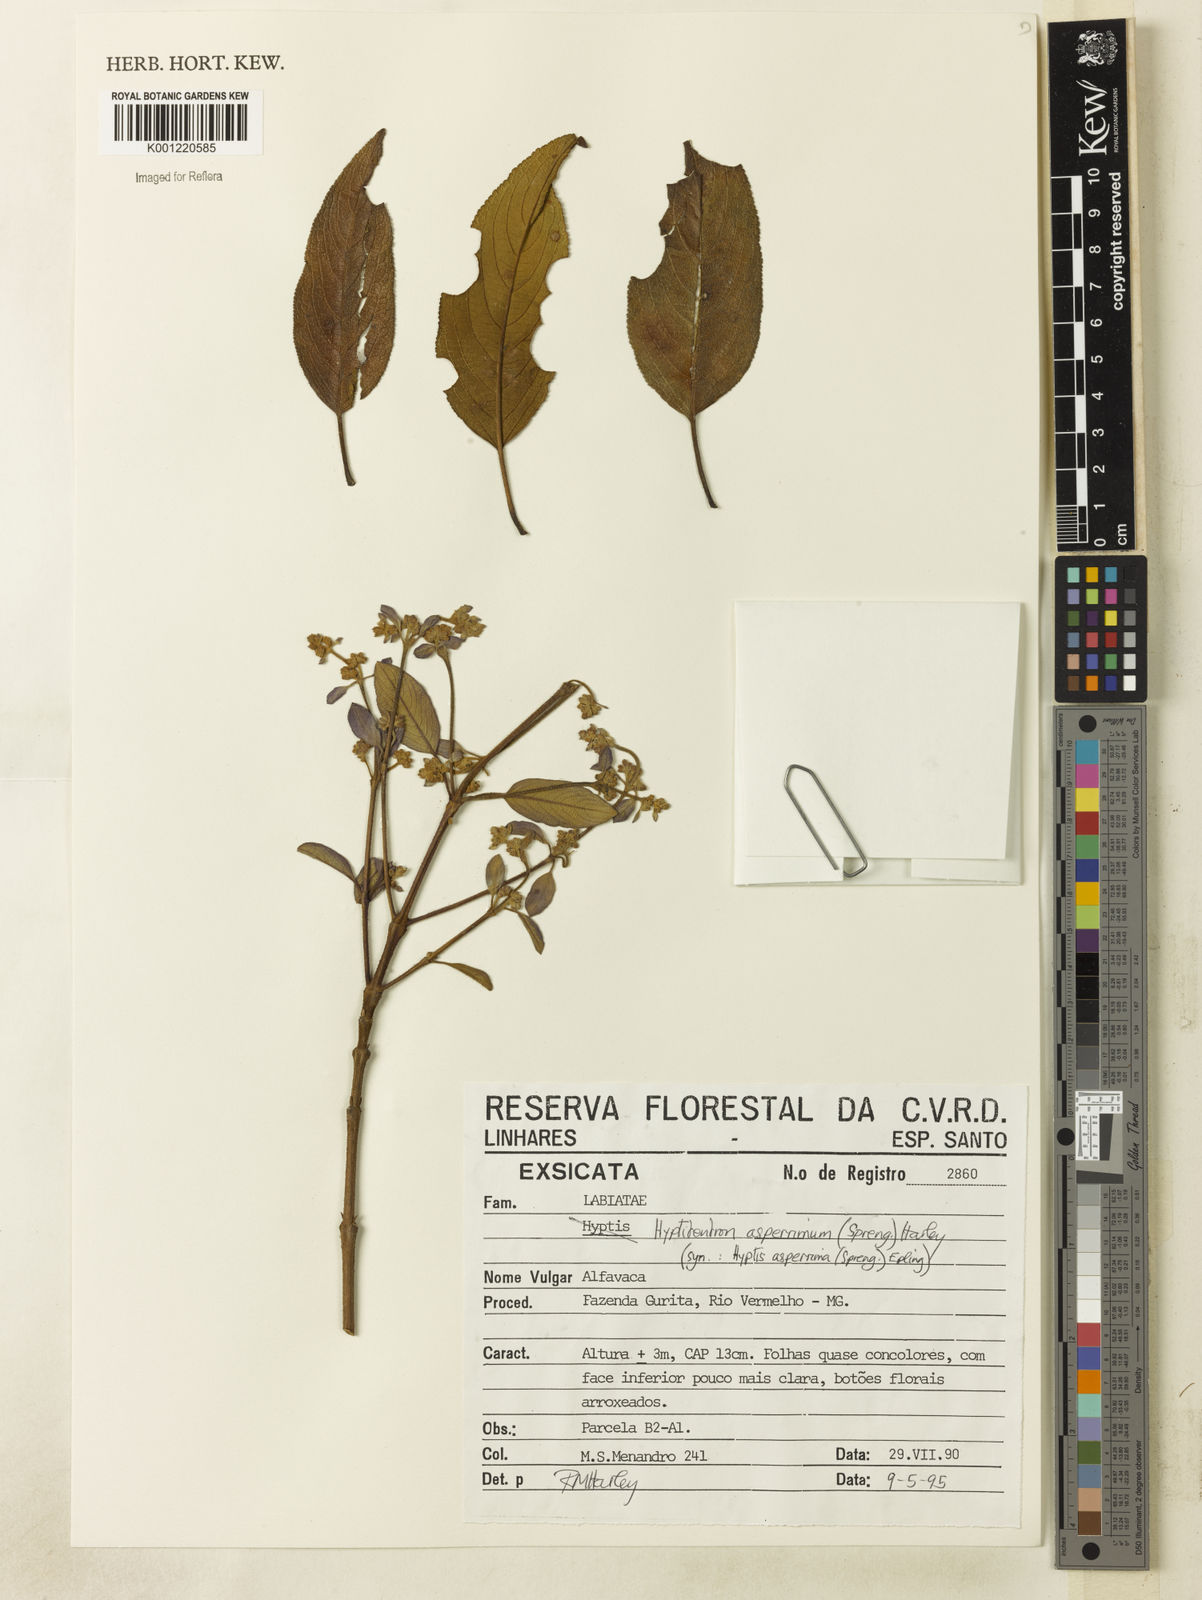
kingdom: Plantae
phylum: Tracheophyta
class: Magnoliopsida
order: Lamiales
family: Lamiaceae
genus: Hyptidendron
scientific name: Hyptidendron asperrimum
